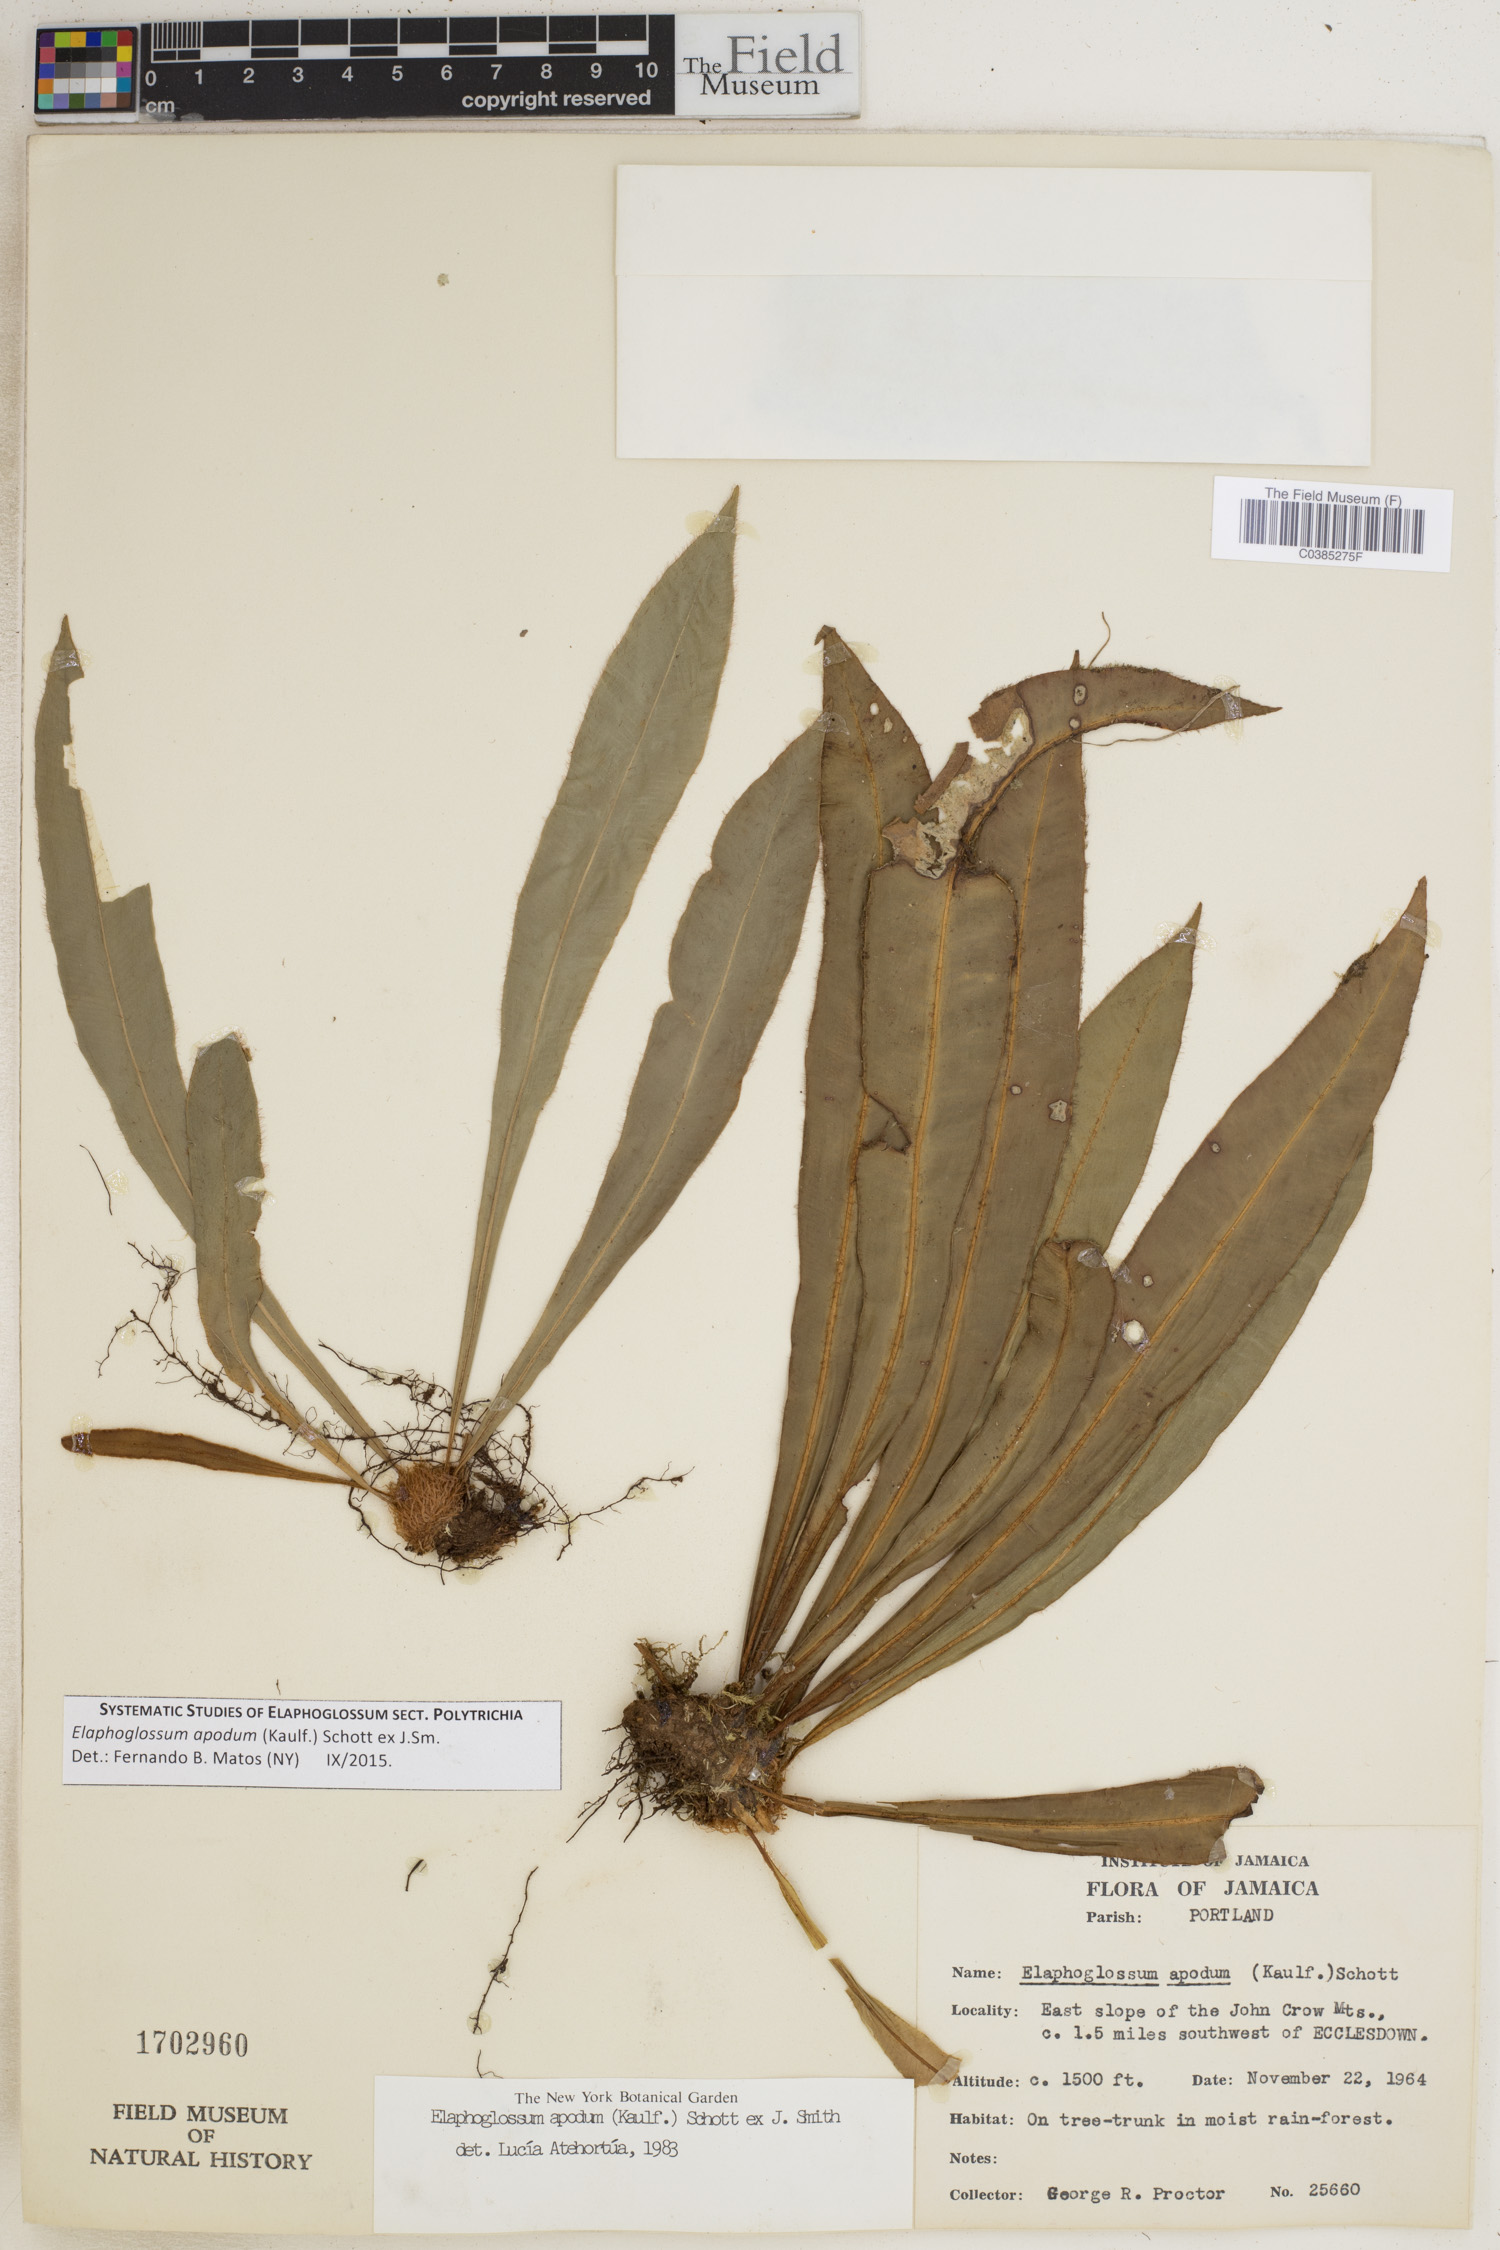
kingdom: Plantae
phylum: Tracheophyta
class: Polypodiopsida
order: Polypodiales
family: Dryopteridaceae
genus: Elaphoglossum
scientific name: Elaphoglossum apodum
